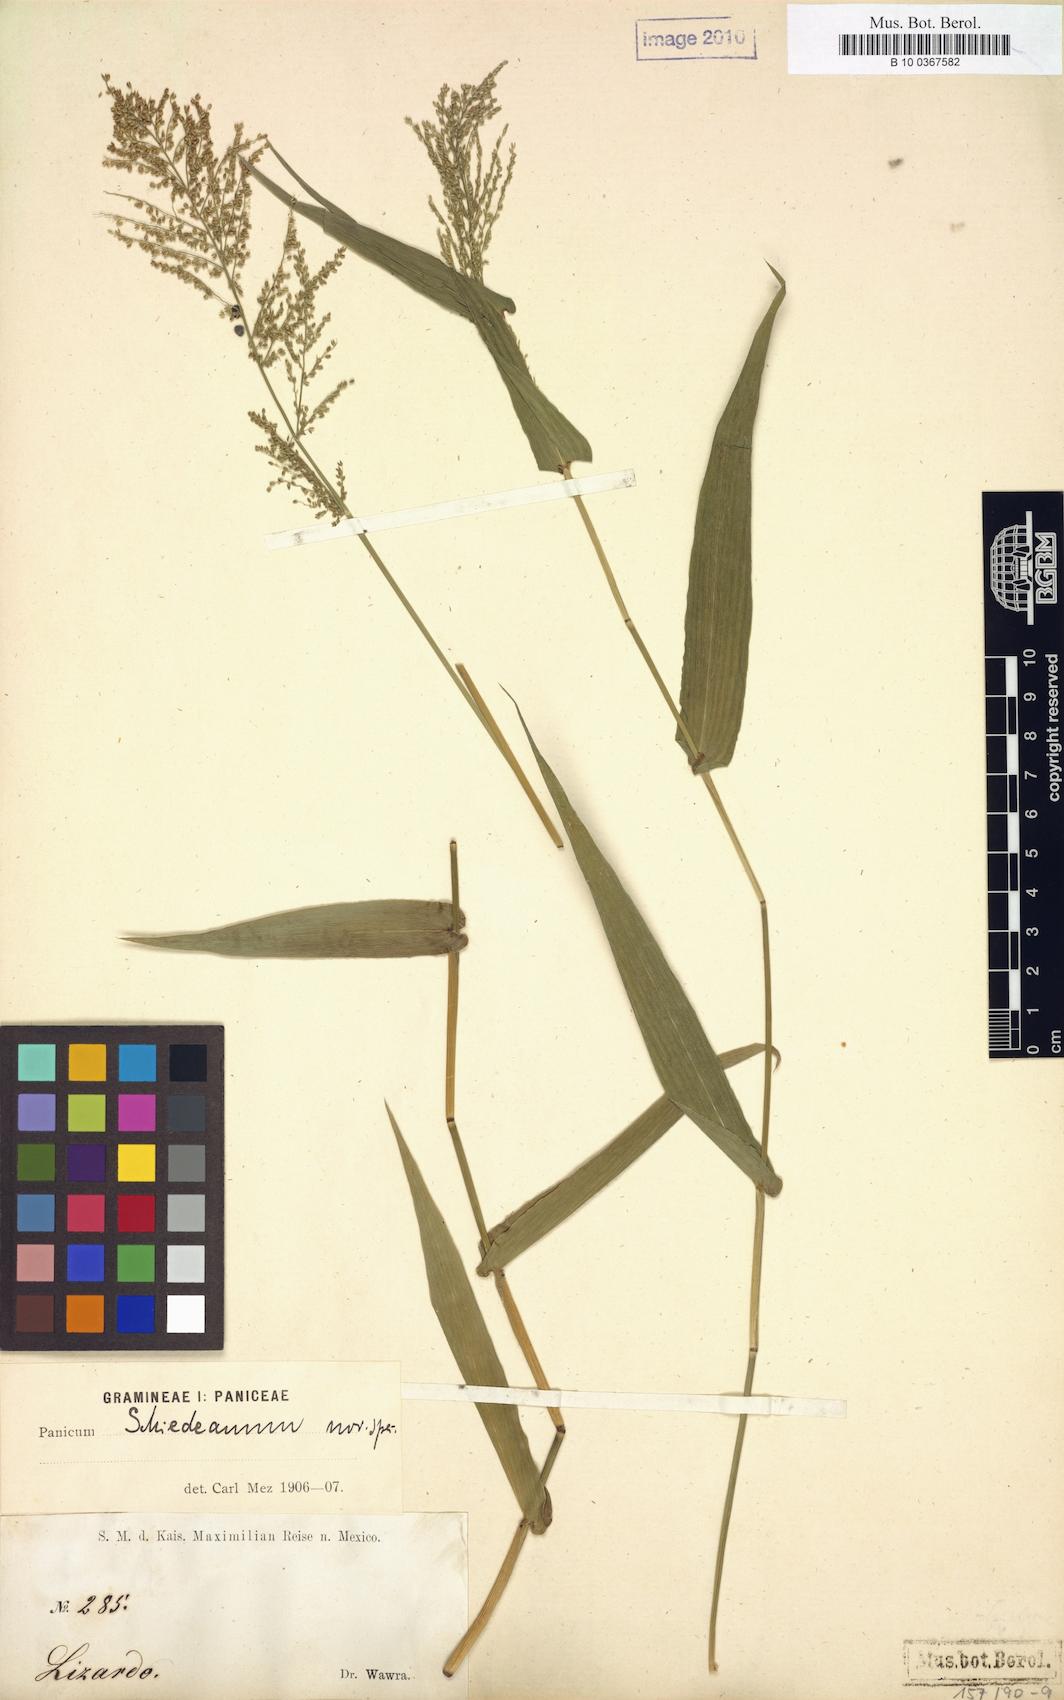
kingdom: Plantae
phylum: Tracheophyta
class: Liliopsida
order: Poales
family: Poaceae
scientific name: Poaceae
